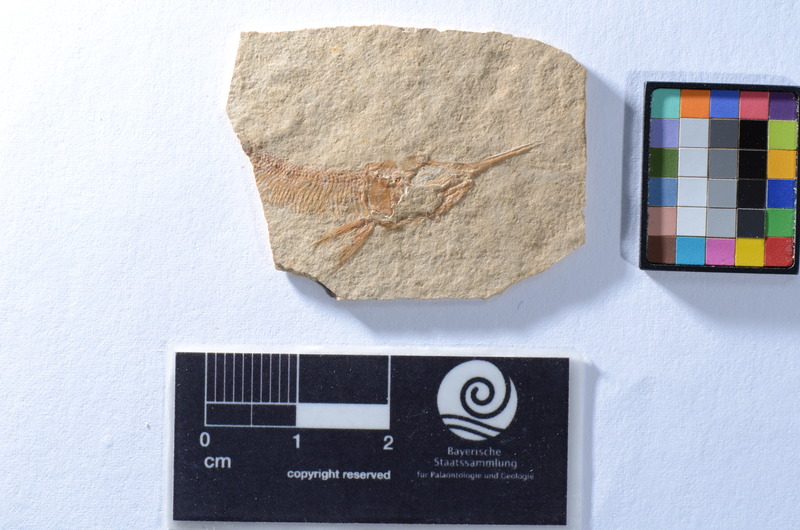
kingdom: Animalia
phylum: Chordata
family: Aspidorhynchidae
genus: Aspidorhynchus
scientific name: Aspidorhynchus
